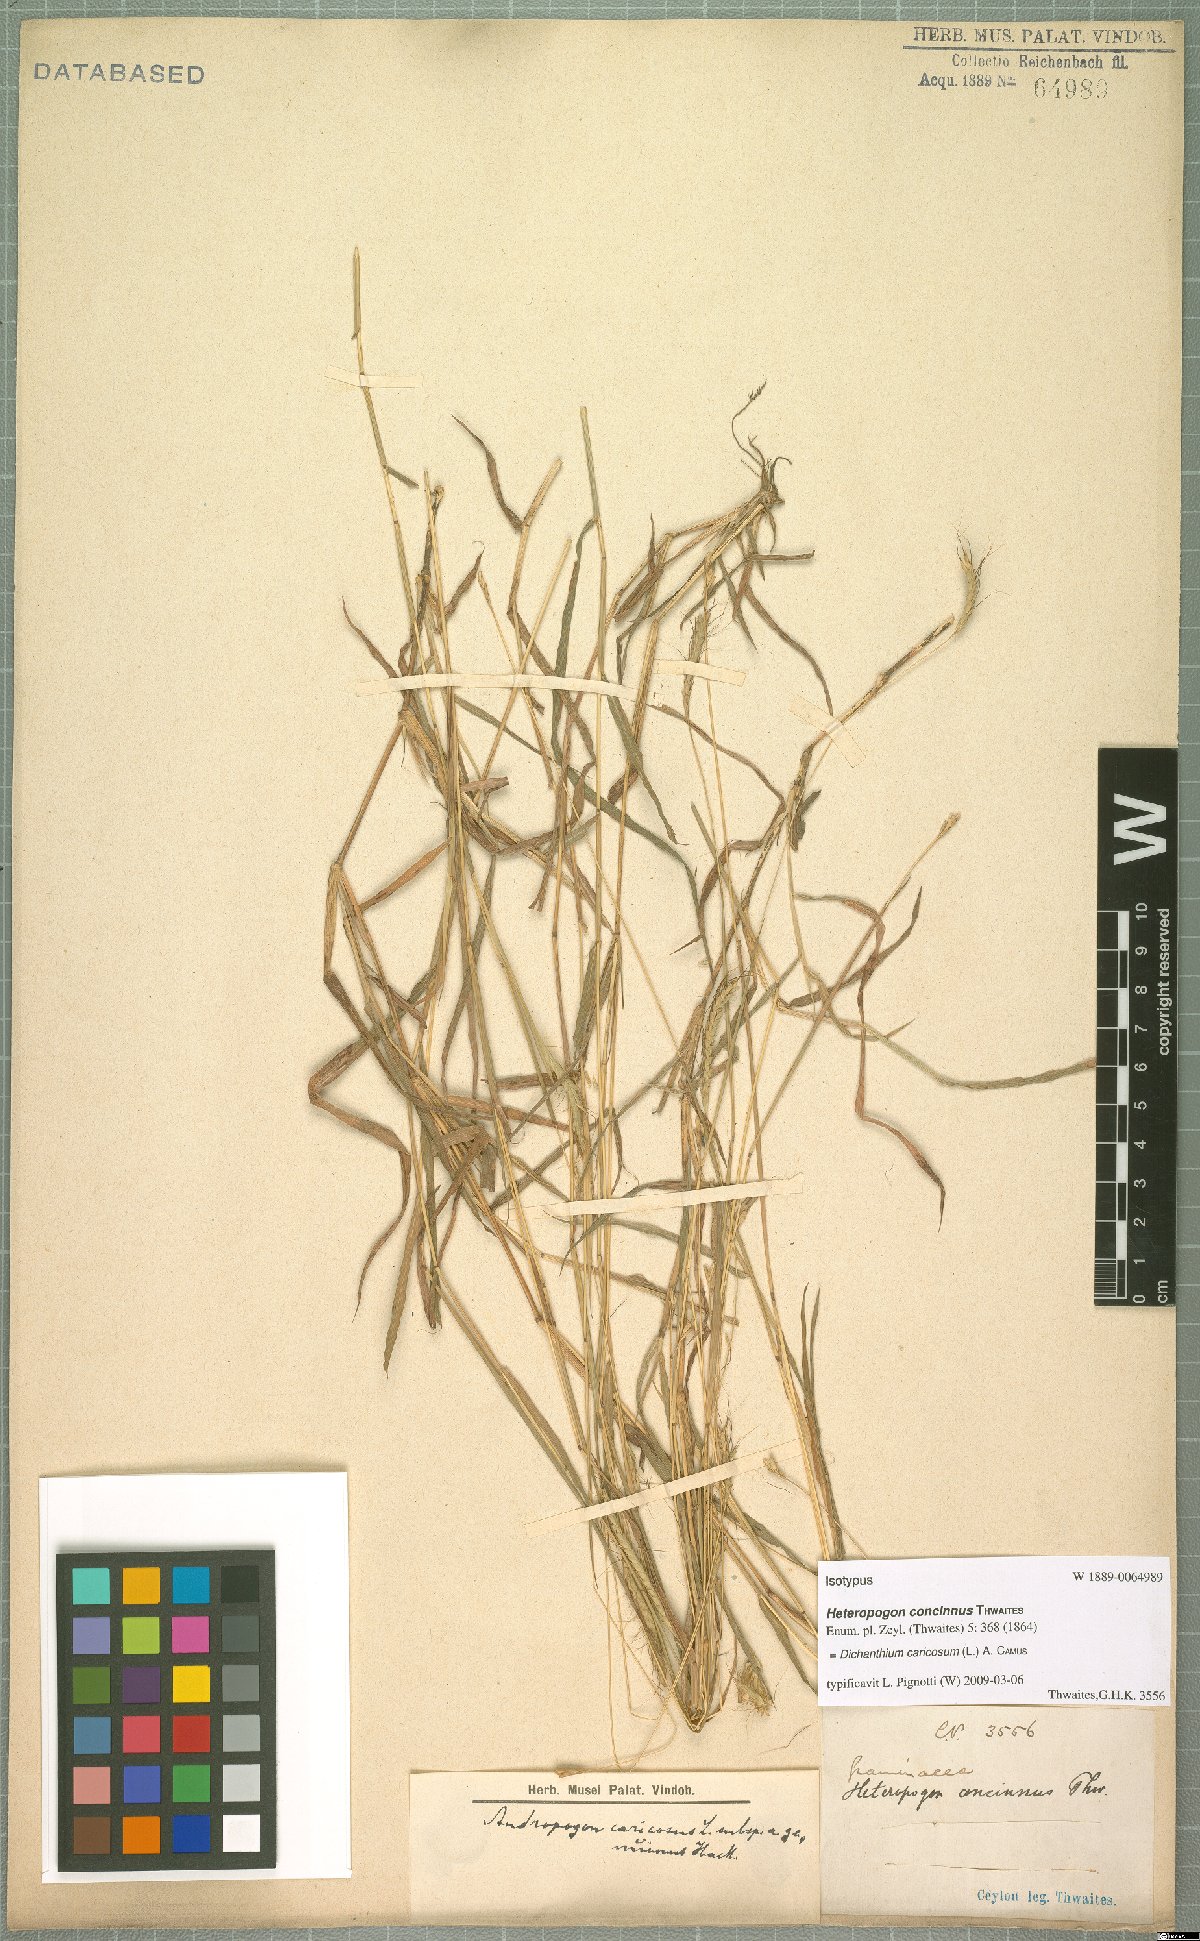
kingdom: Plantae
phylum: Tracheophyta
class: Liliopsida
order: Poales
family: Poaceae
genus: Dichanthium
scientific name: Dichanthium caricosum
